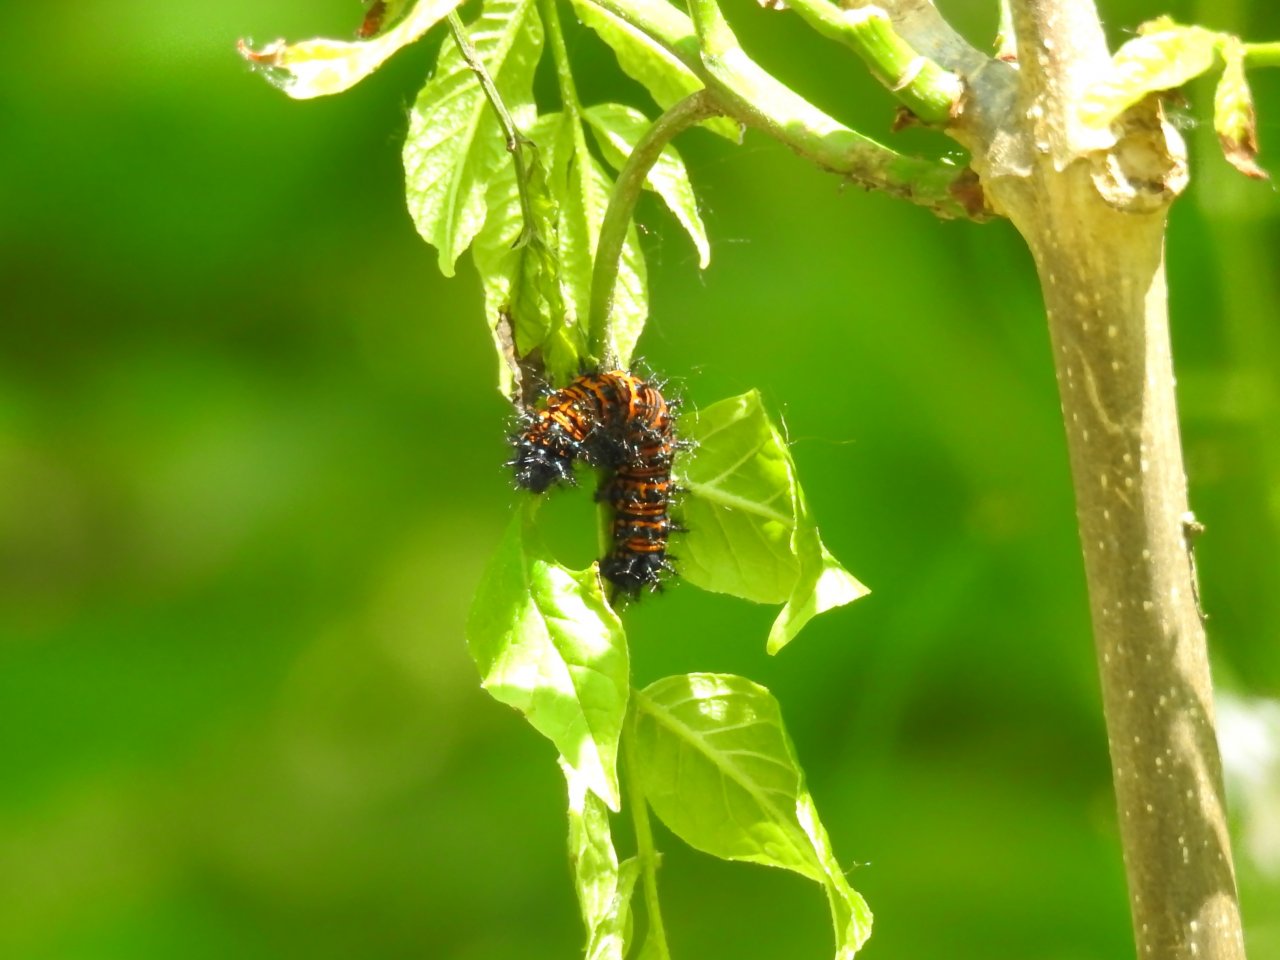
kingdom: Animalia
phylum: Arthropoda
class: Insecta
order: Lepidoptera
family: Nymphalidae
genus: Euphydryas
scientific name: Euphydryas phaeton
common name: Baltimore Checkerspot
